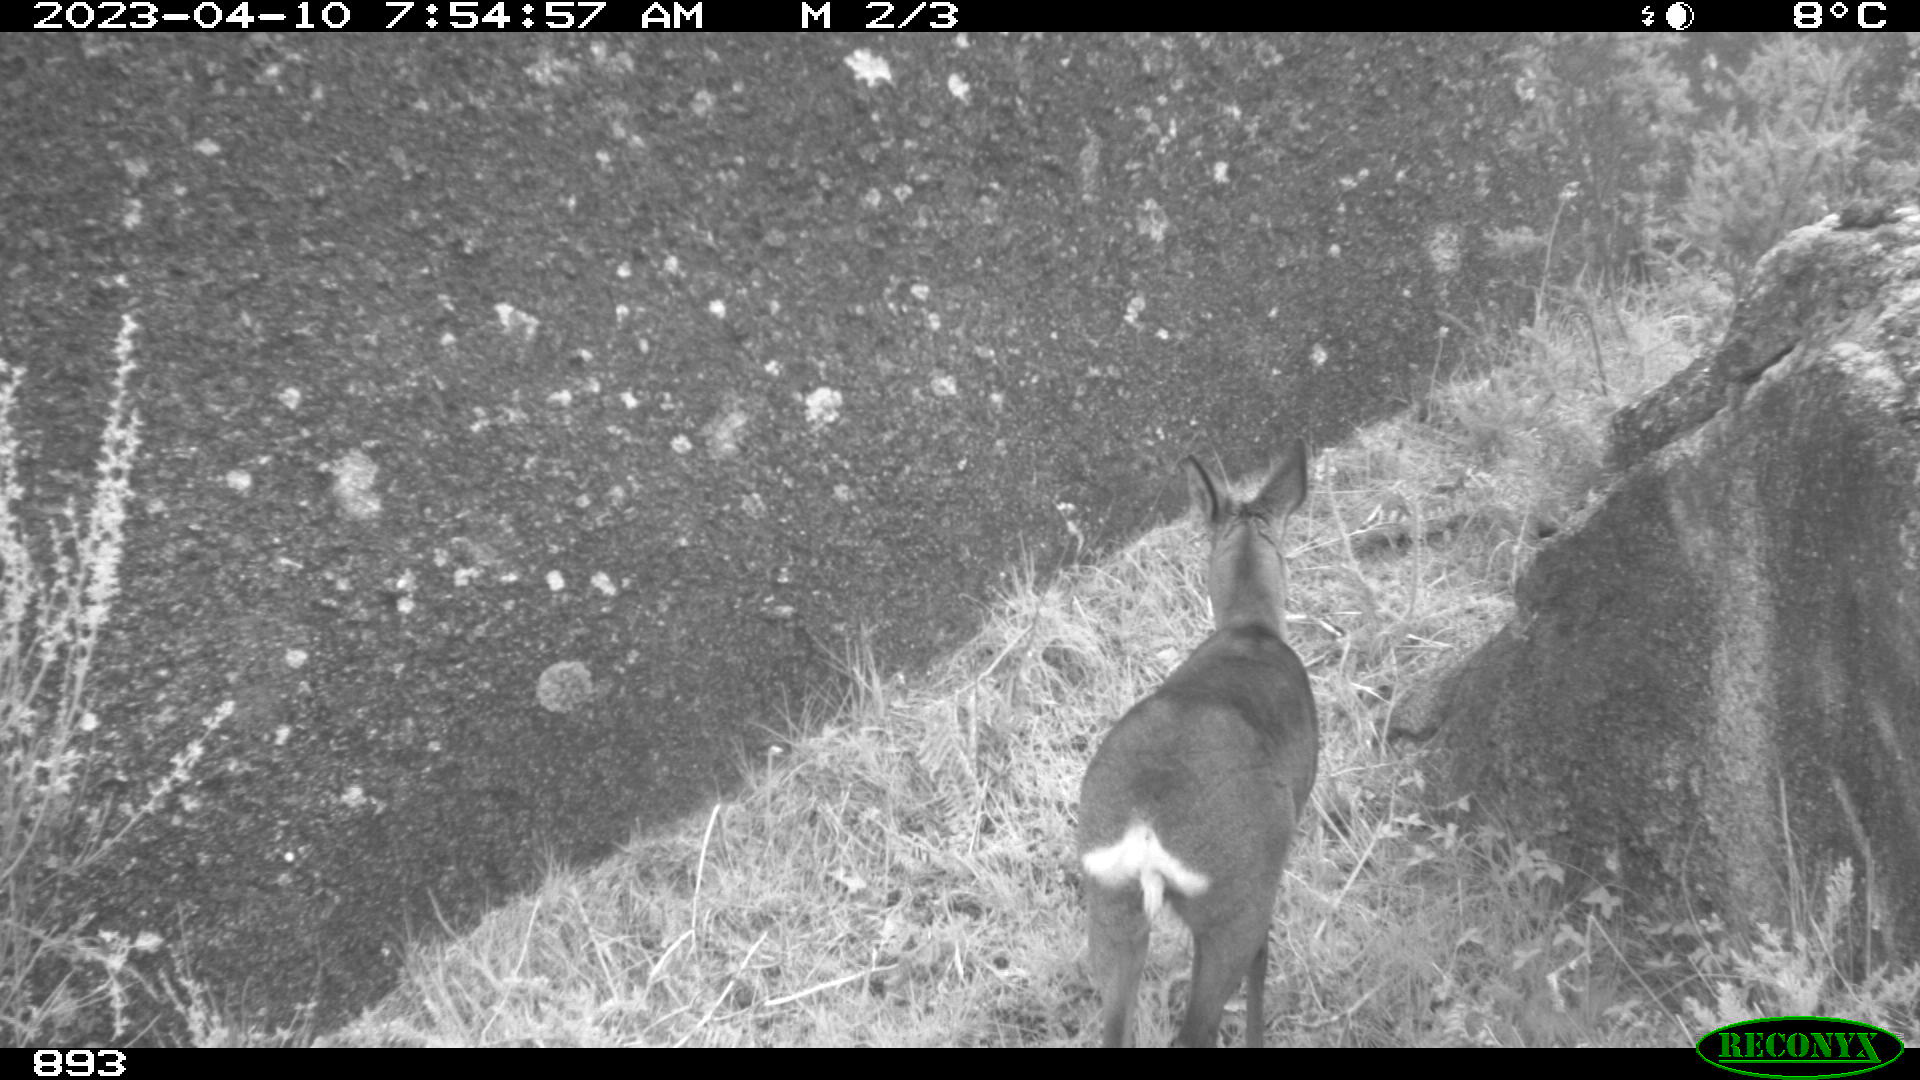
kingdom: Animalia
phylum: Chordata
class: Mammalia
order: Artiodactyla
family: Cervidae
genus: Capreolus
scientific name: Capreolus capreolus
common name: Western roe deer
